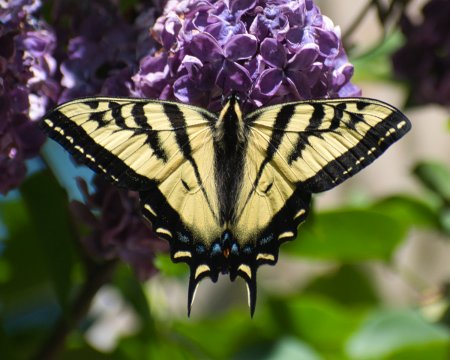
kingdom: Animalia
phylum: Arthropoda
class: Insecta
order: Lepidoptera
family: Papilionidae
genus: Pterourus
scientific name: Pterourus rutulus
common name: Western Tiger Swallowtail
